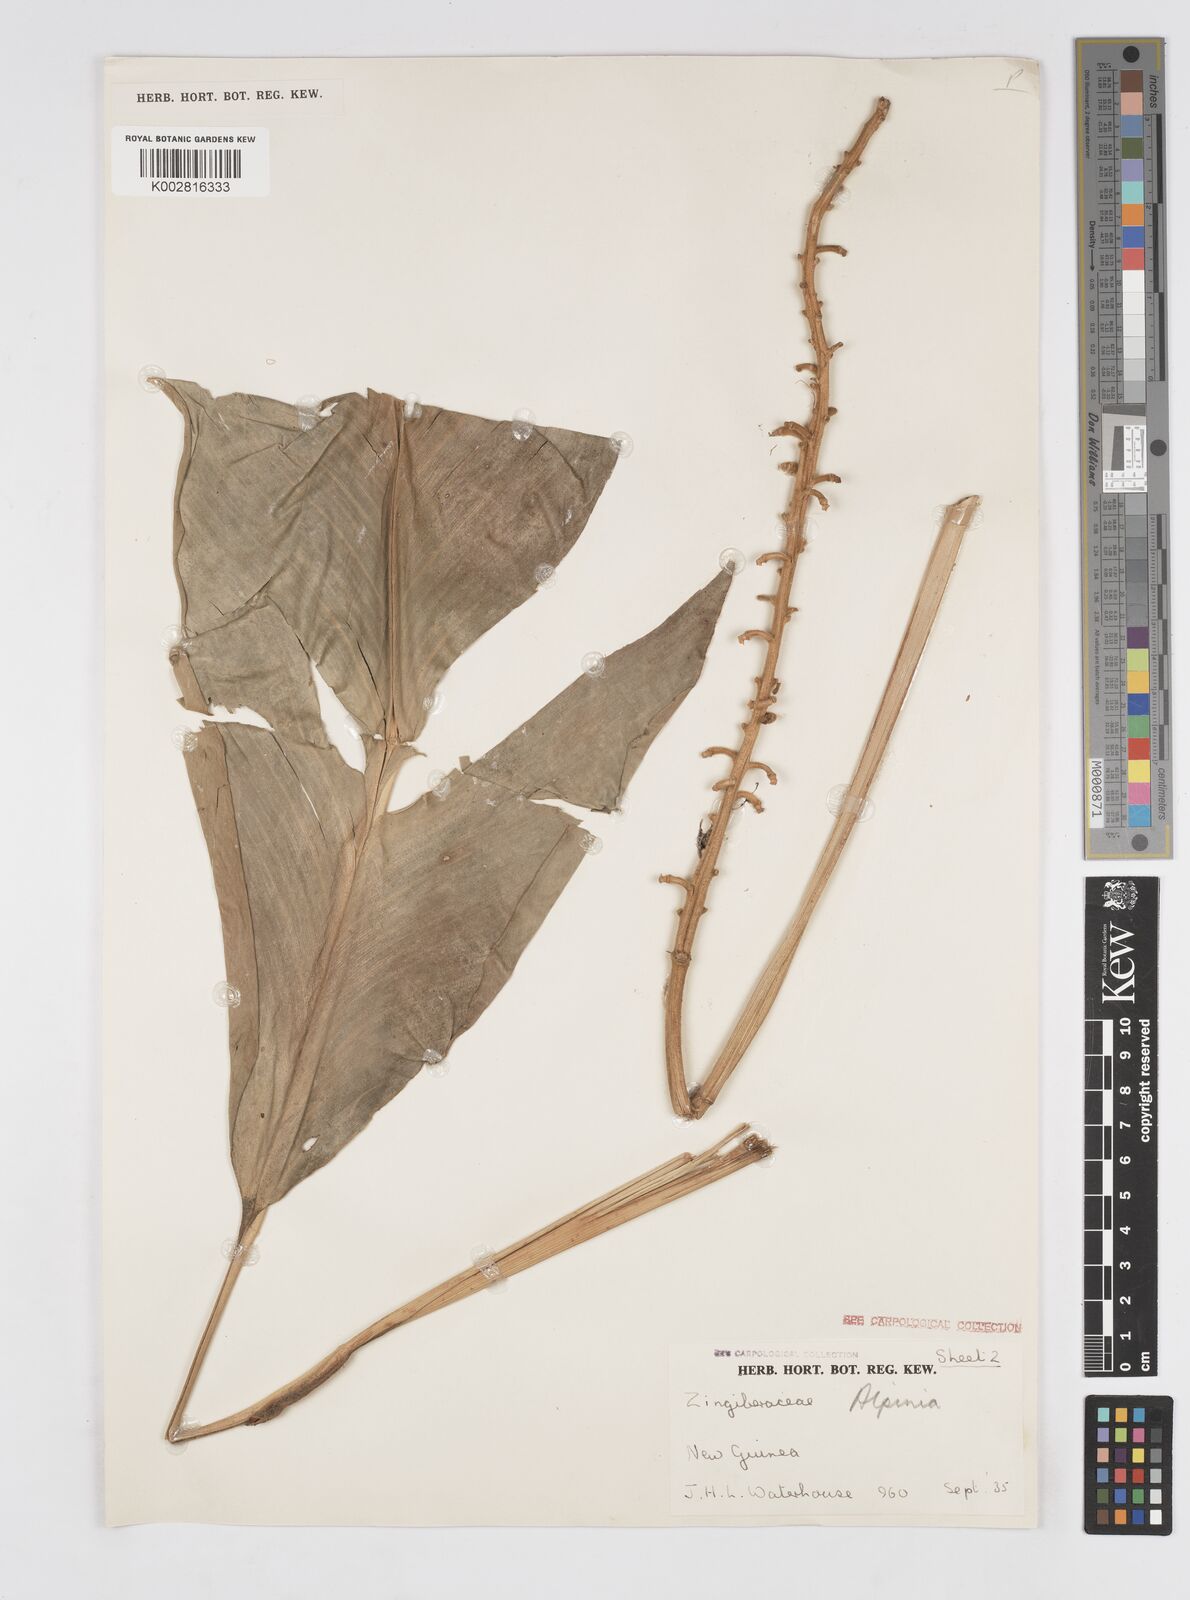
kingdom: Plantae
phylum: Tracheophyta
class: Liliopsida
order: Zingiberales
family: Zingiberaceae
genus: Alpinia
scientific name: Alpinia novae-pommeraniae
